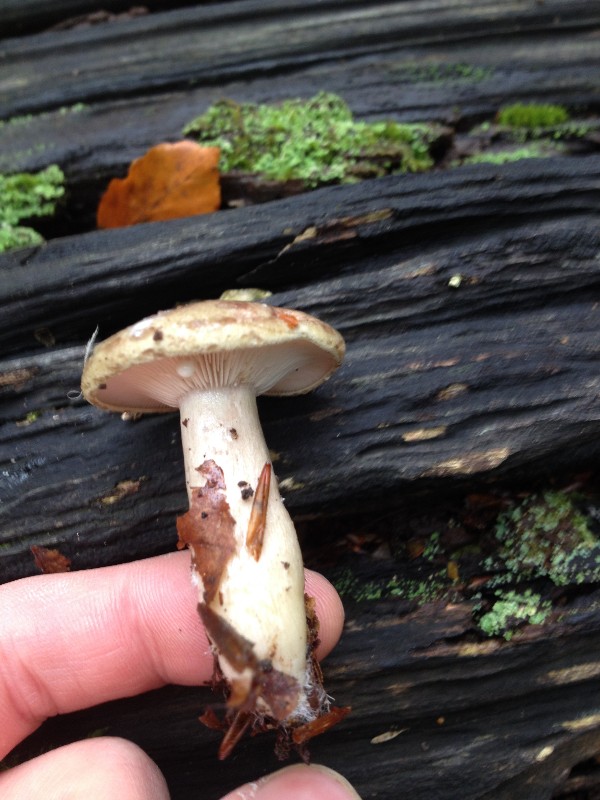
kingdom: Fungi
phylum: Basidiomycota
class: Agaricomycetes
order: Russulales
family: Russulaceae
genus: Lactarius
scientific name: Lactarius blennius
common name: dråbeplettet mælkehat
